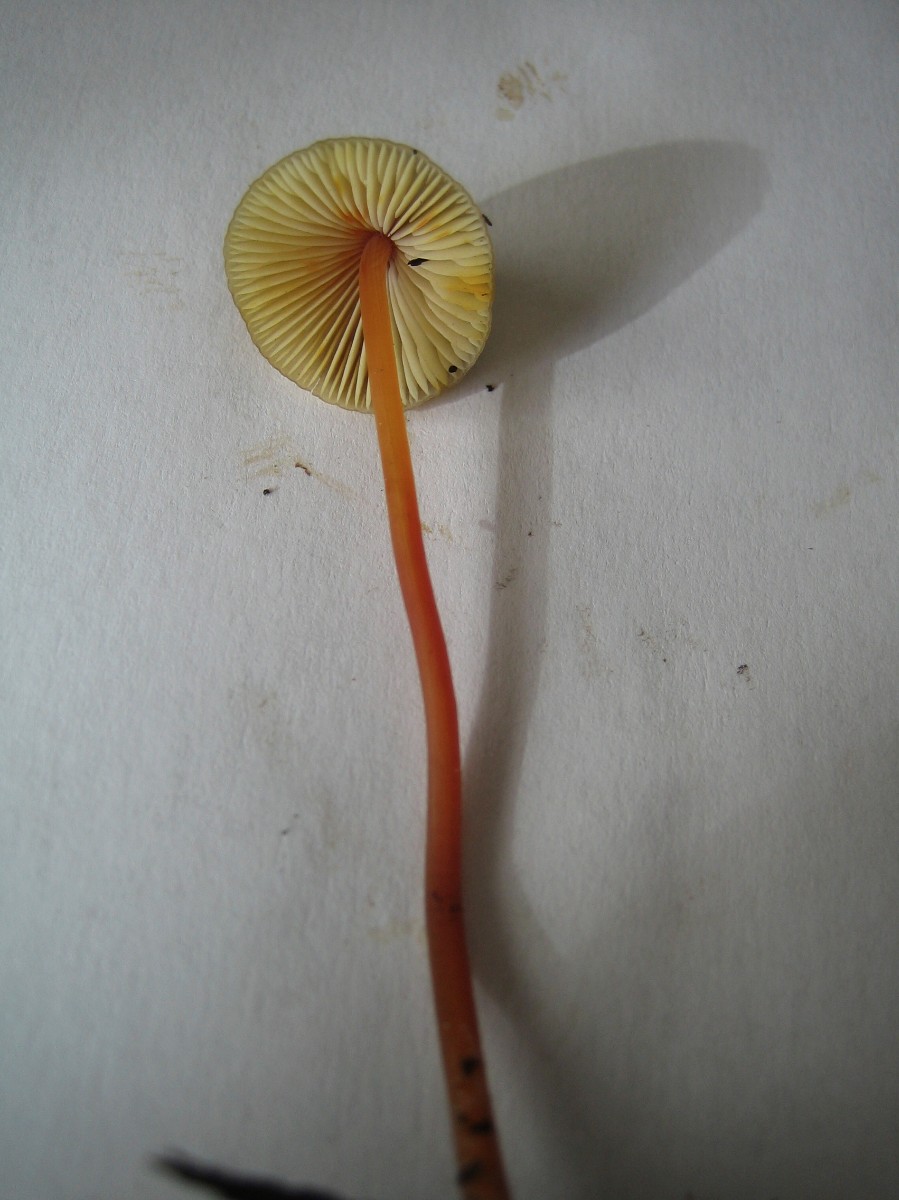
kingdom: Fungi
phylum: Basidiomycota
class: Agaricomycetes
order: Agaricales
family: Mycenaceae
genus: Mycena
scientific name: Mycena crocata
